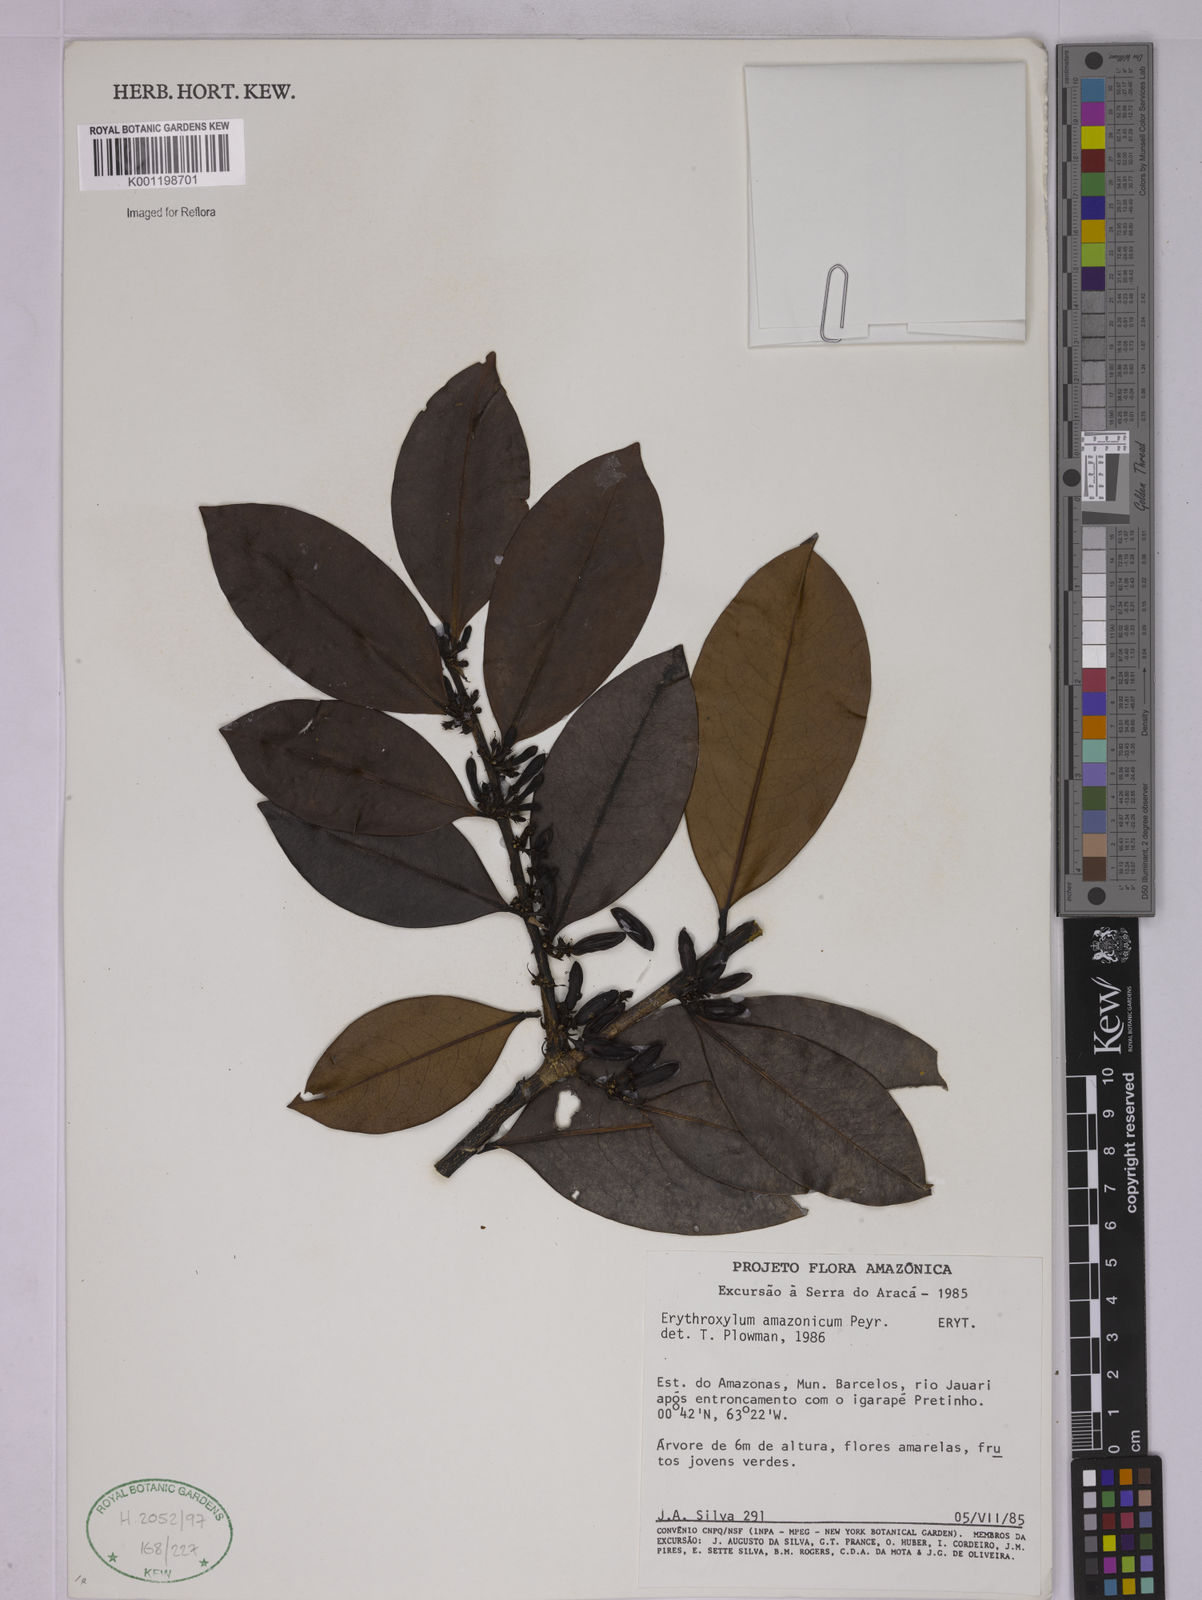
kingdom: Plantae
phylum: Tracheophyta
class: Magnoliopsida
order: Malpighiales
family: Erythroxylaceae
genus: Erythroxylum
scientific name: Erythroxylum amazonicum
